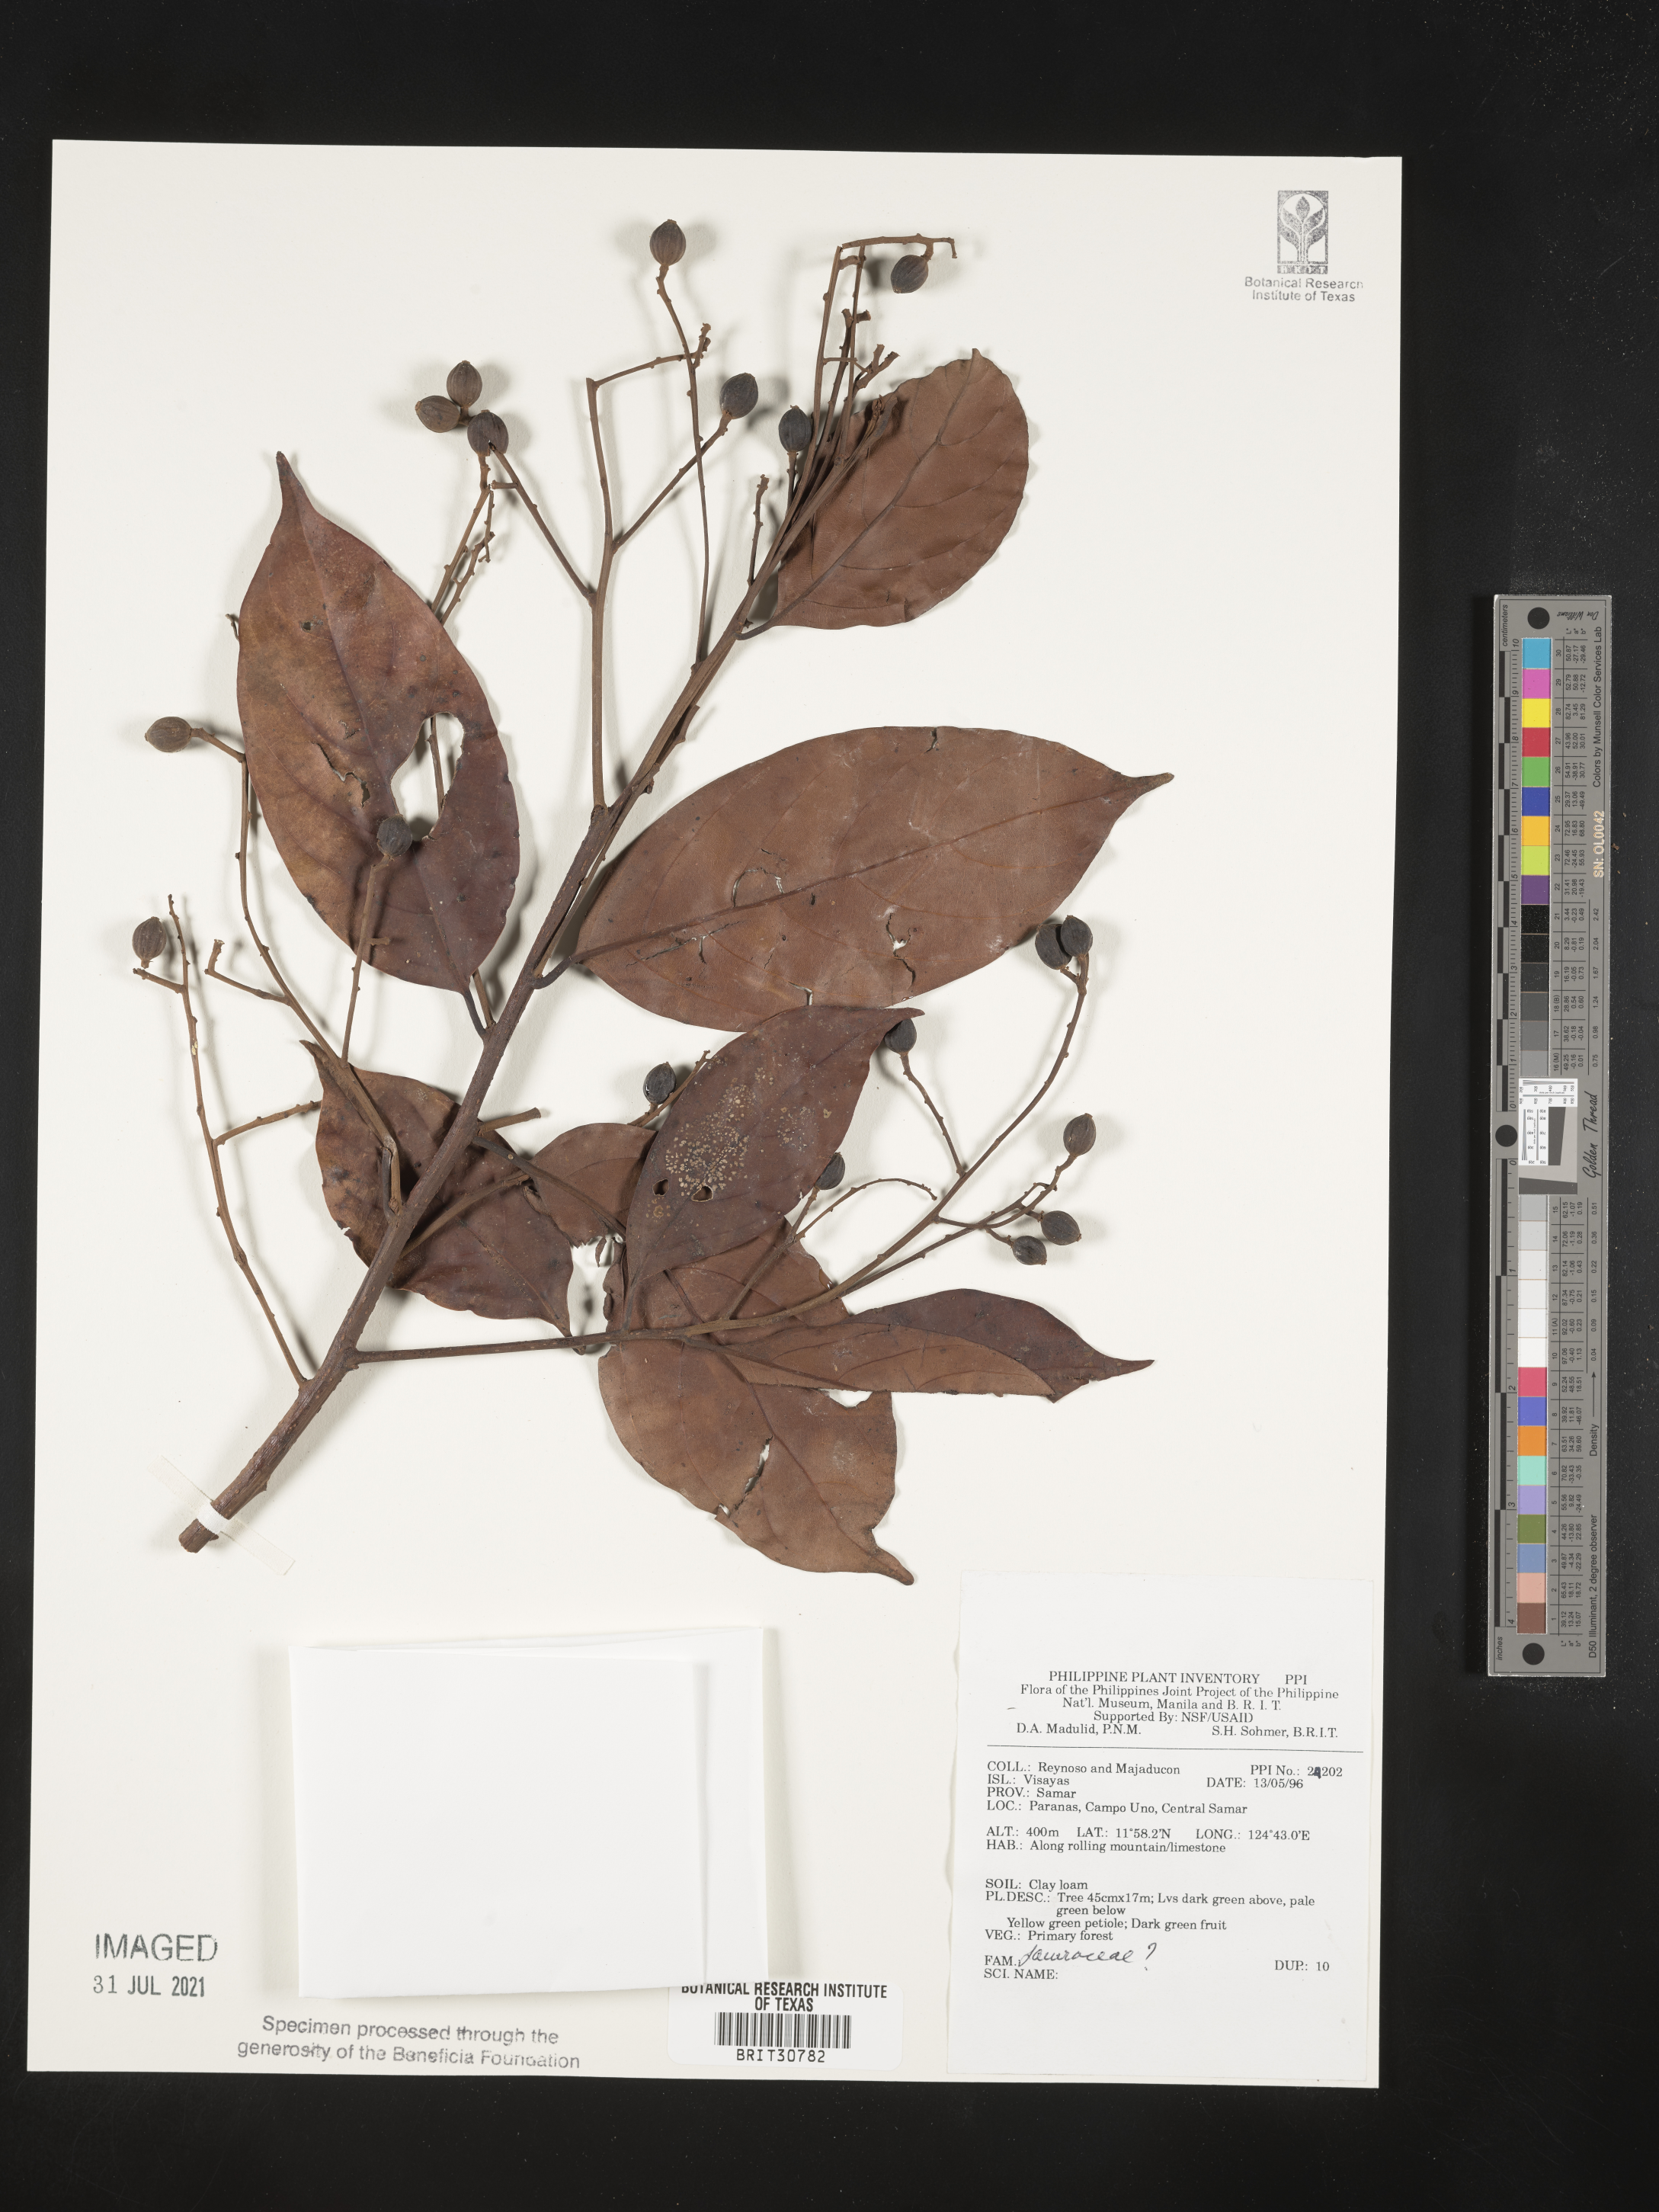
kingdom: Plantae
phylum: Tracheophyta
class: Magnoliopsida
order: Laurales
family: Lauraceae
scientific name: Lauraceae
